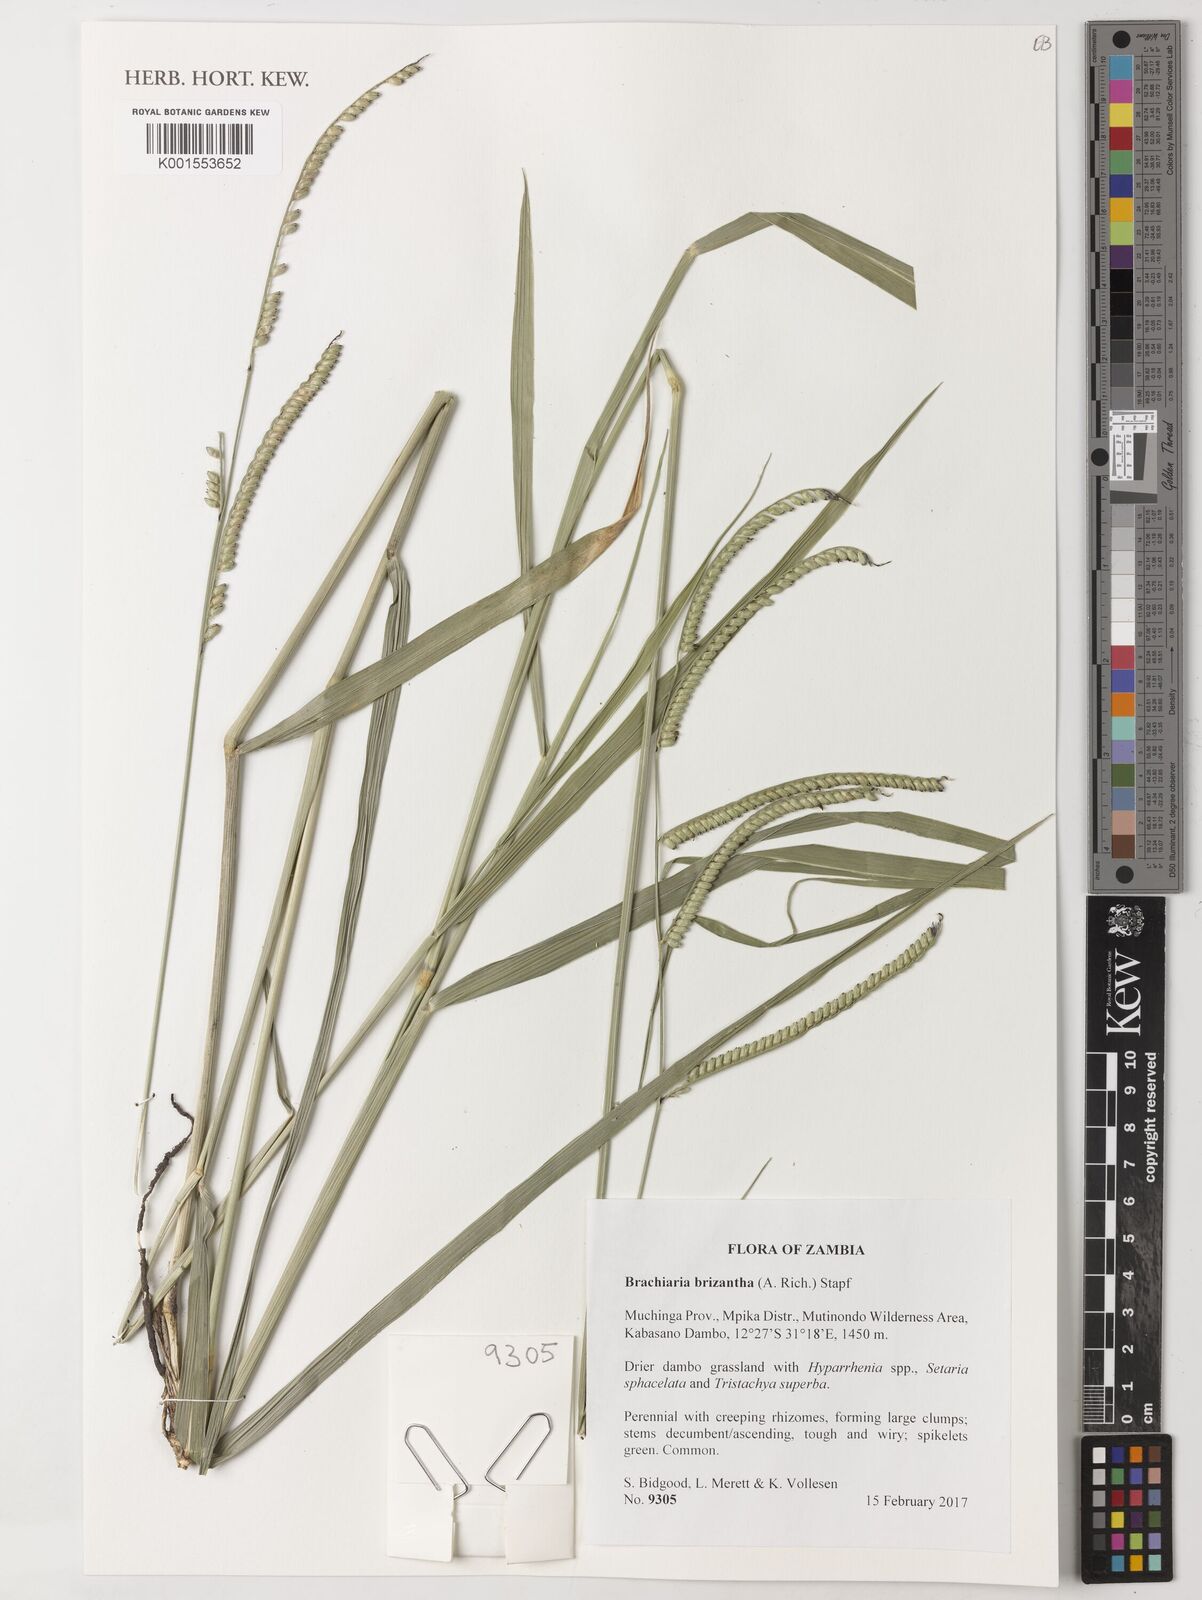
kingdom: Plantae
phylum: Tracheophyta
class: Liliopsida
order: Poales
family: Poaceae
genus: Urochloa
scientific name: Urochloa brizantha
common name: Palisade signalgrass
